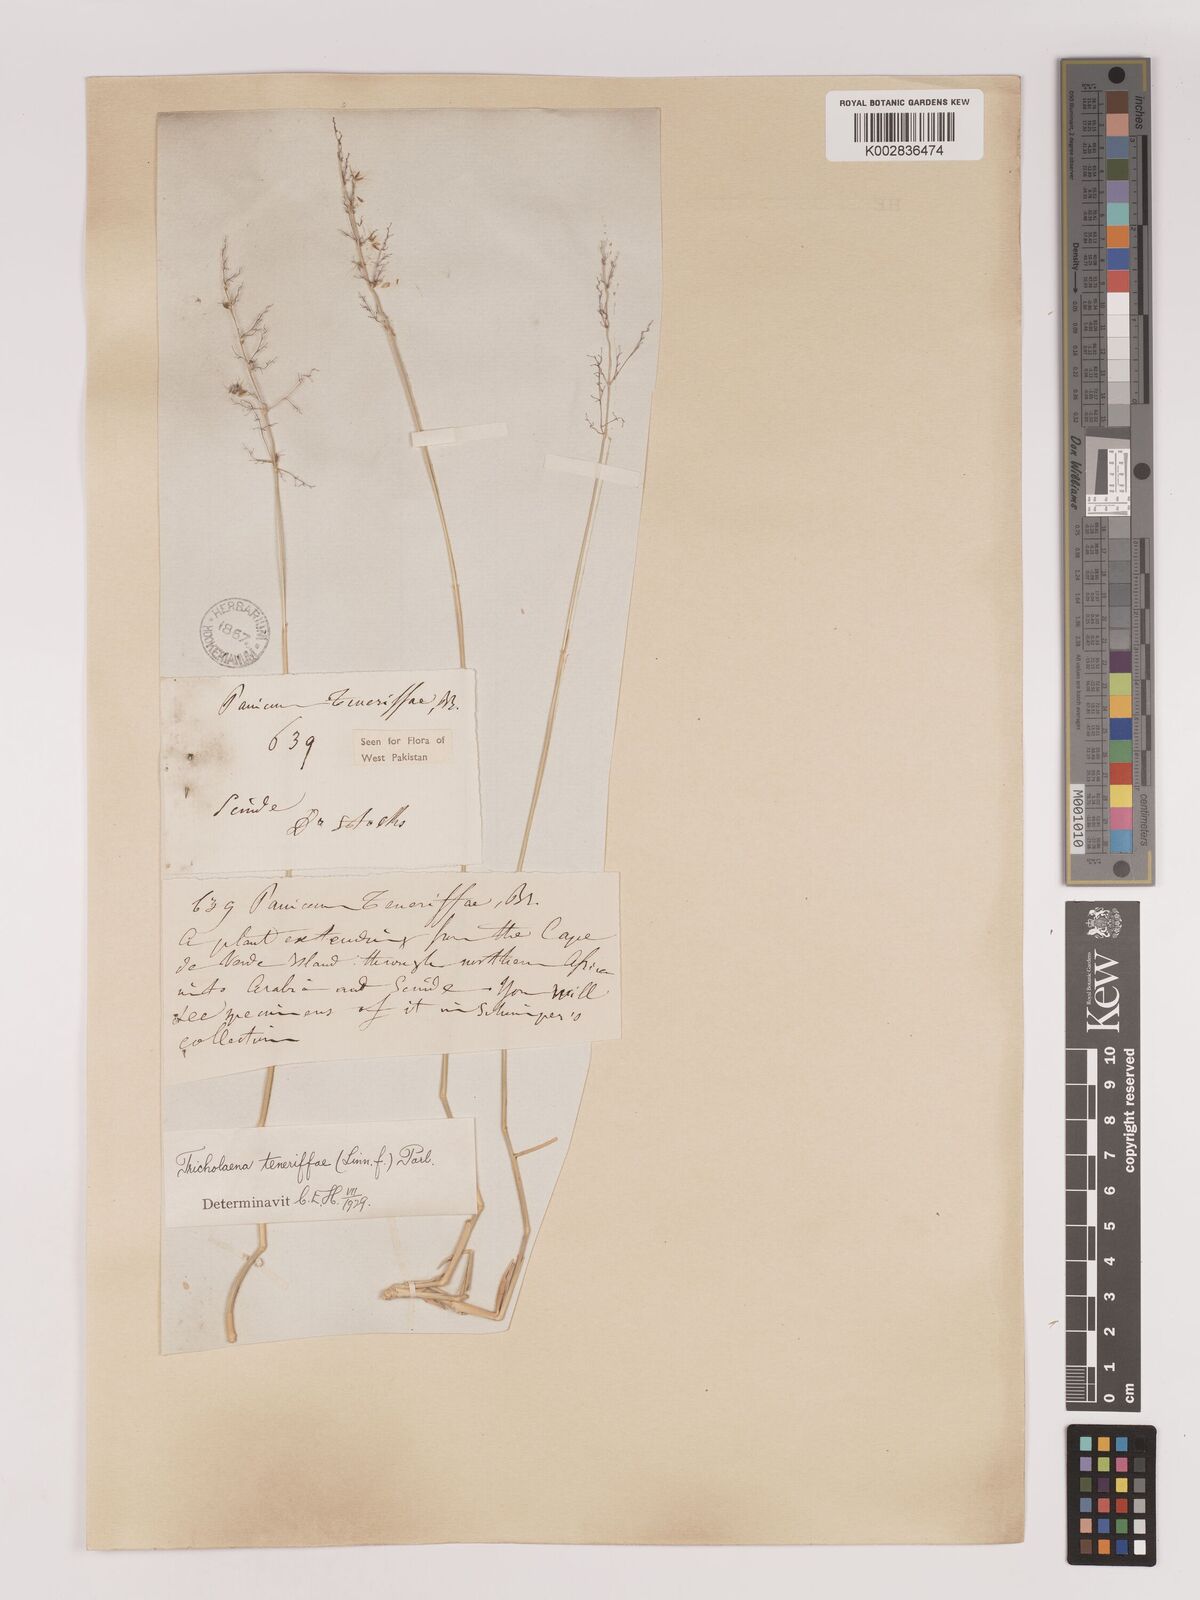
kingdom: Plantae
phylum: Tracheophyta
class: Liliopsida
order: Poales
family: Poaceae
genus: Tricholaena
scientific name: Tricholaena teneriffae
